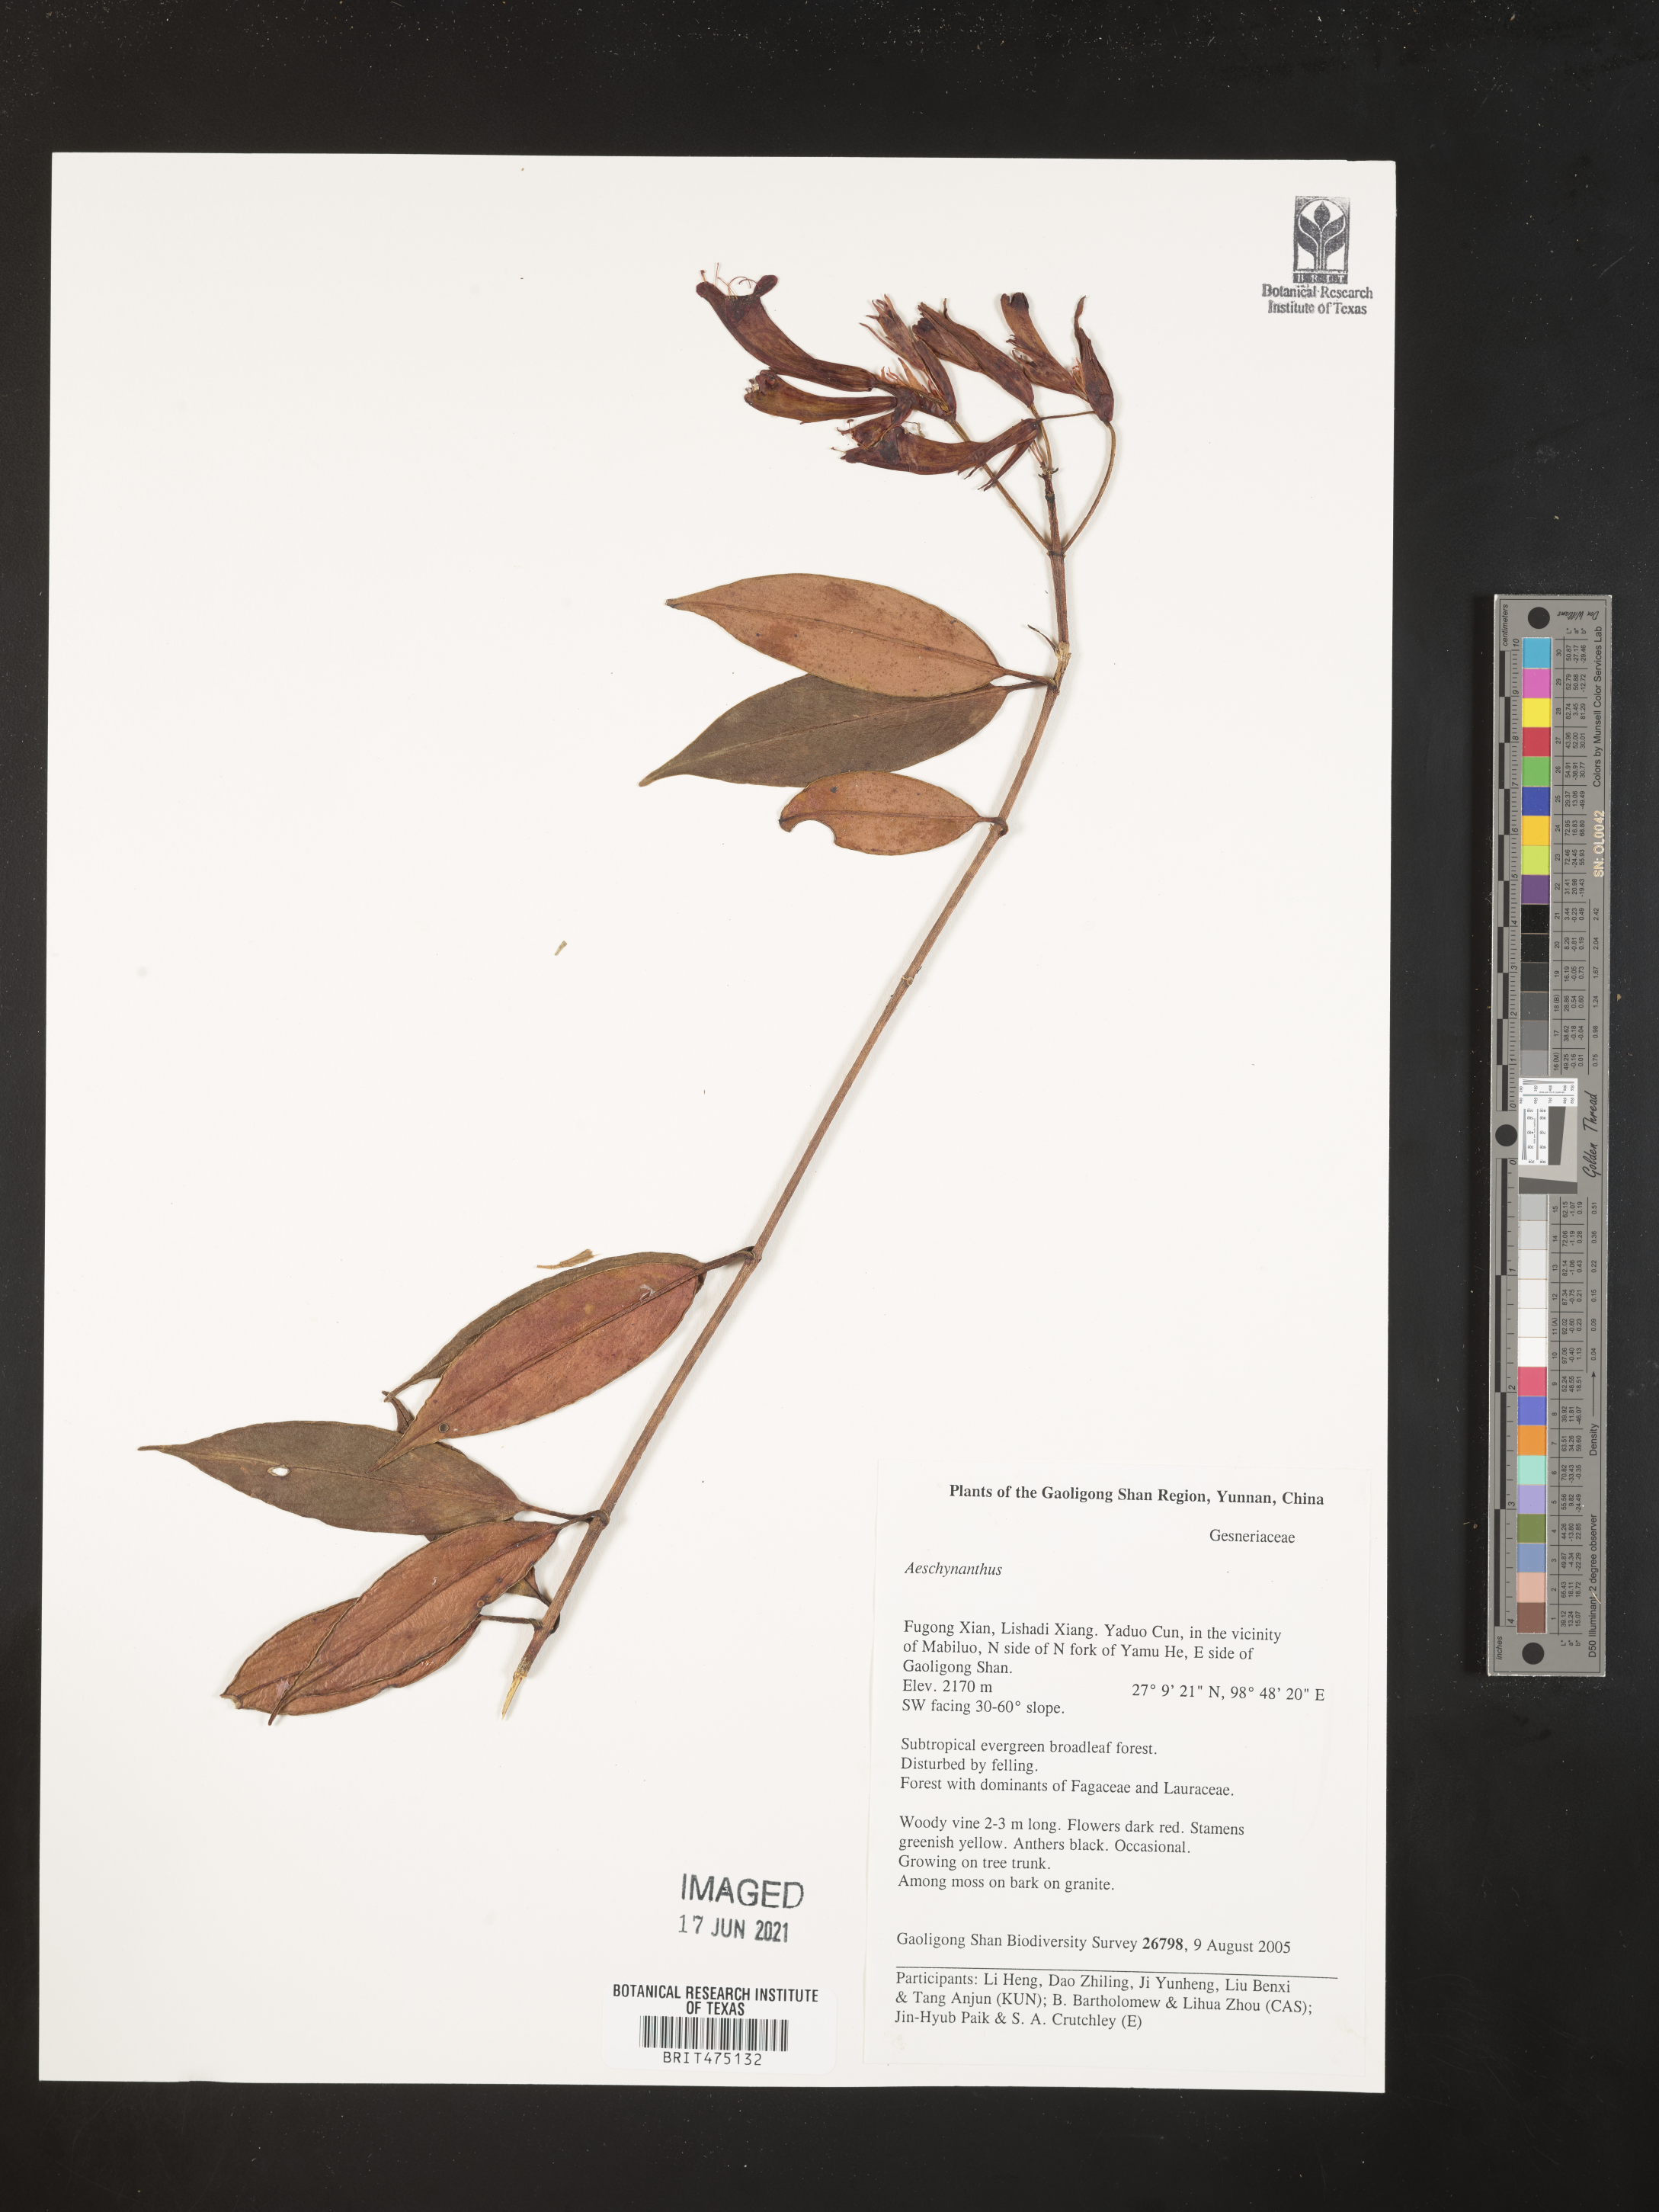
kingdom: Plantae
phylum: Tracheophyta
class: Magnoliopsida
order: Lamiales
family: Gesneriaceae
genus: Aeschynanthus
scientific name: Aeschynanthus
